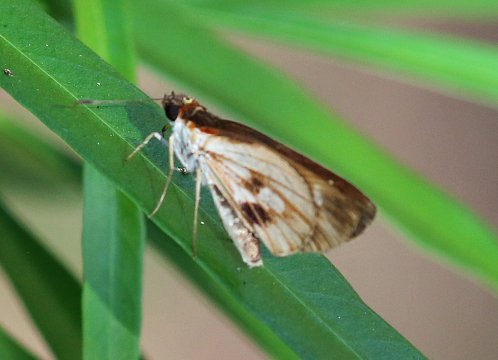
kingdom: Animalia
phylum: Arthropoda
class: Insecta
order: Lepidoptera
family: Hesperiidae
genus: Vettius
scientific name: Vettius fantasos
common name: Fantastic Skipper
